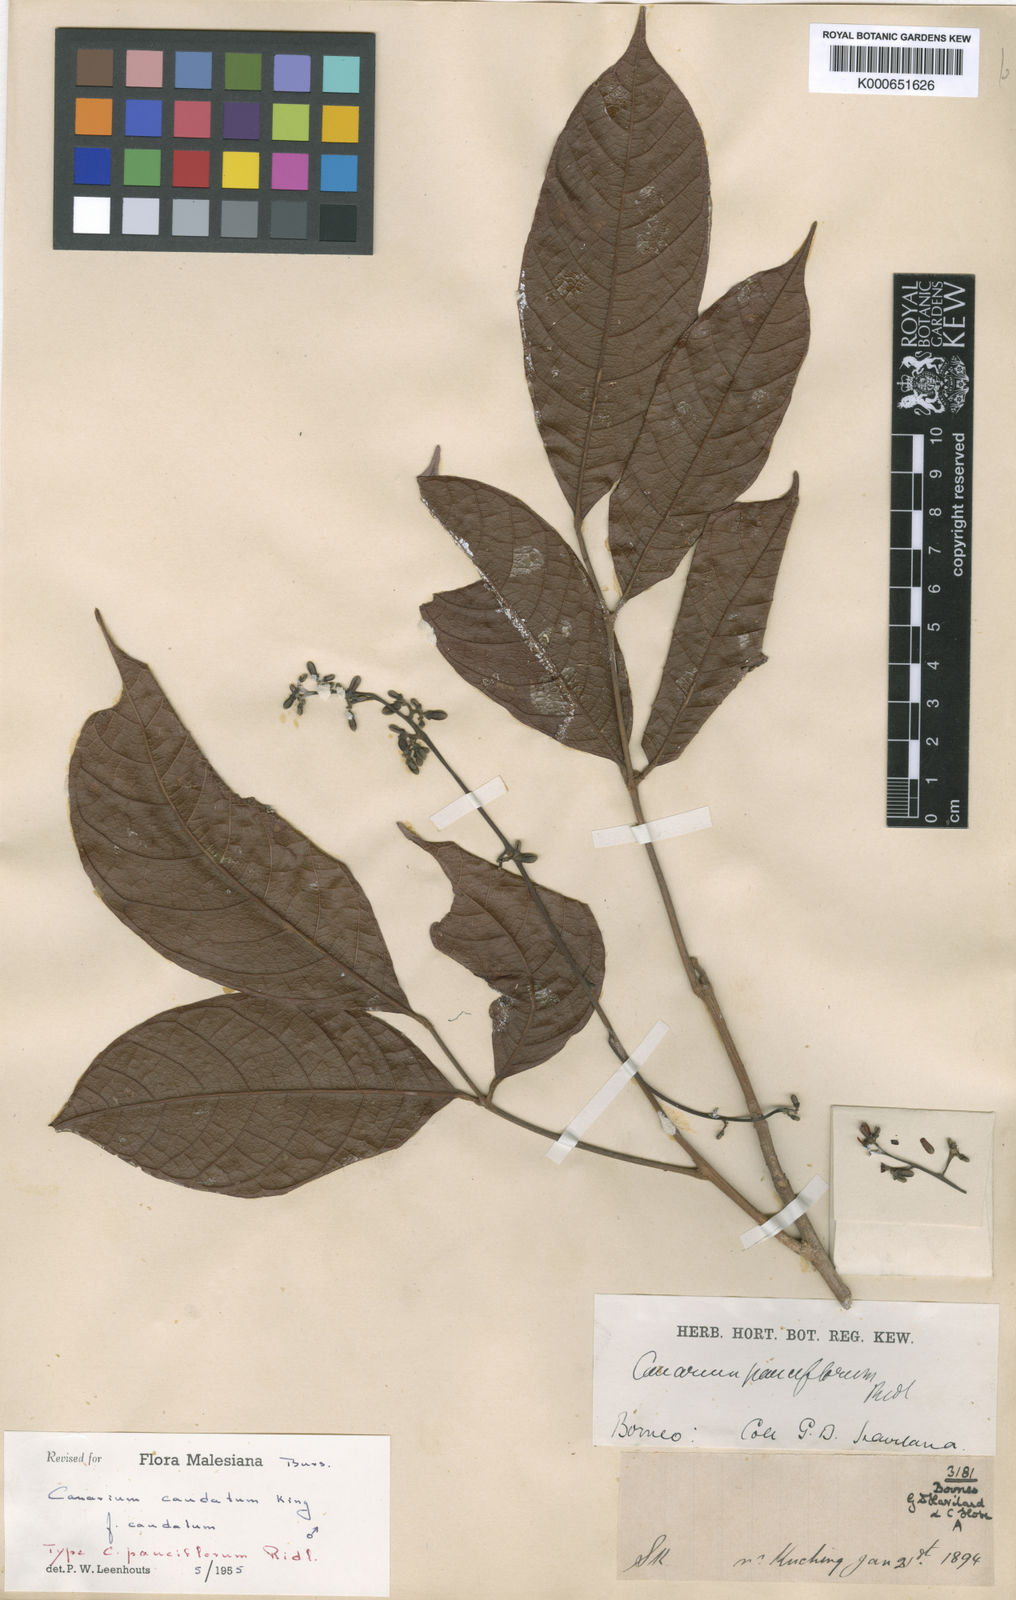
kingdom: Plantae
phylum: Tracheophyta
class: Magnoliopsida
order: Sapindales
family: Burseraceae
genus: Canarium
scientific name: Canarium caudatum
